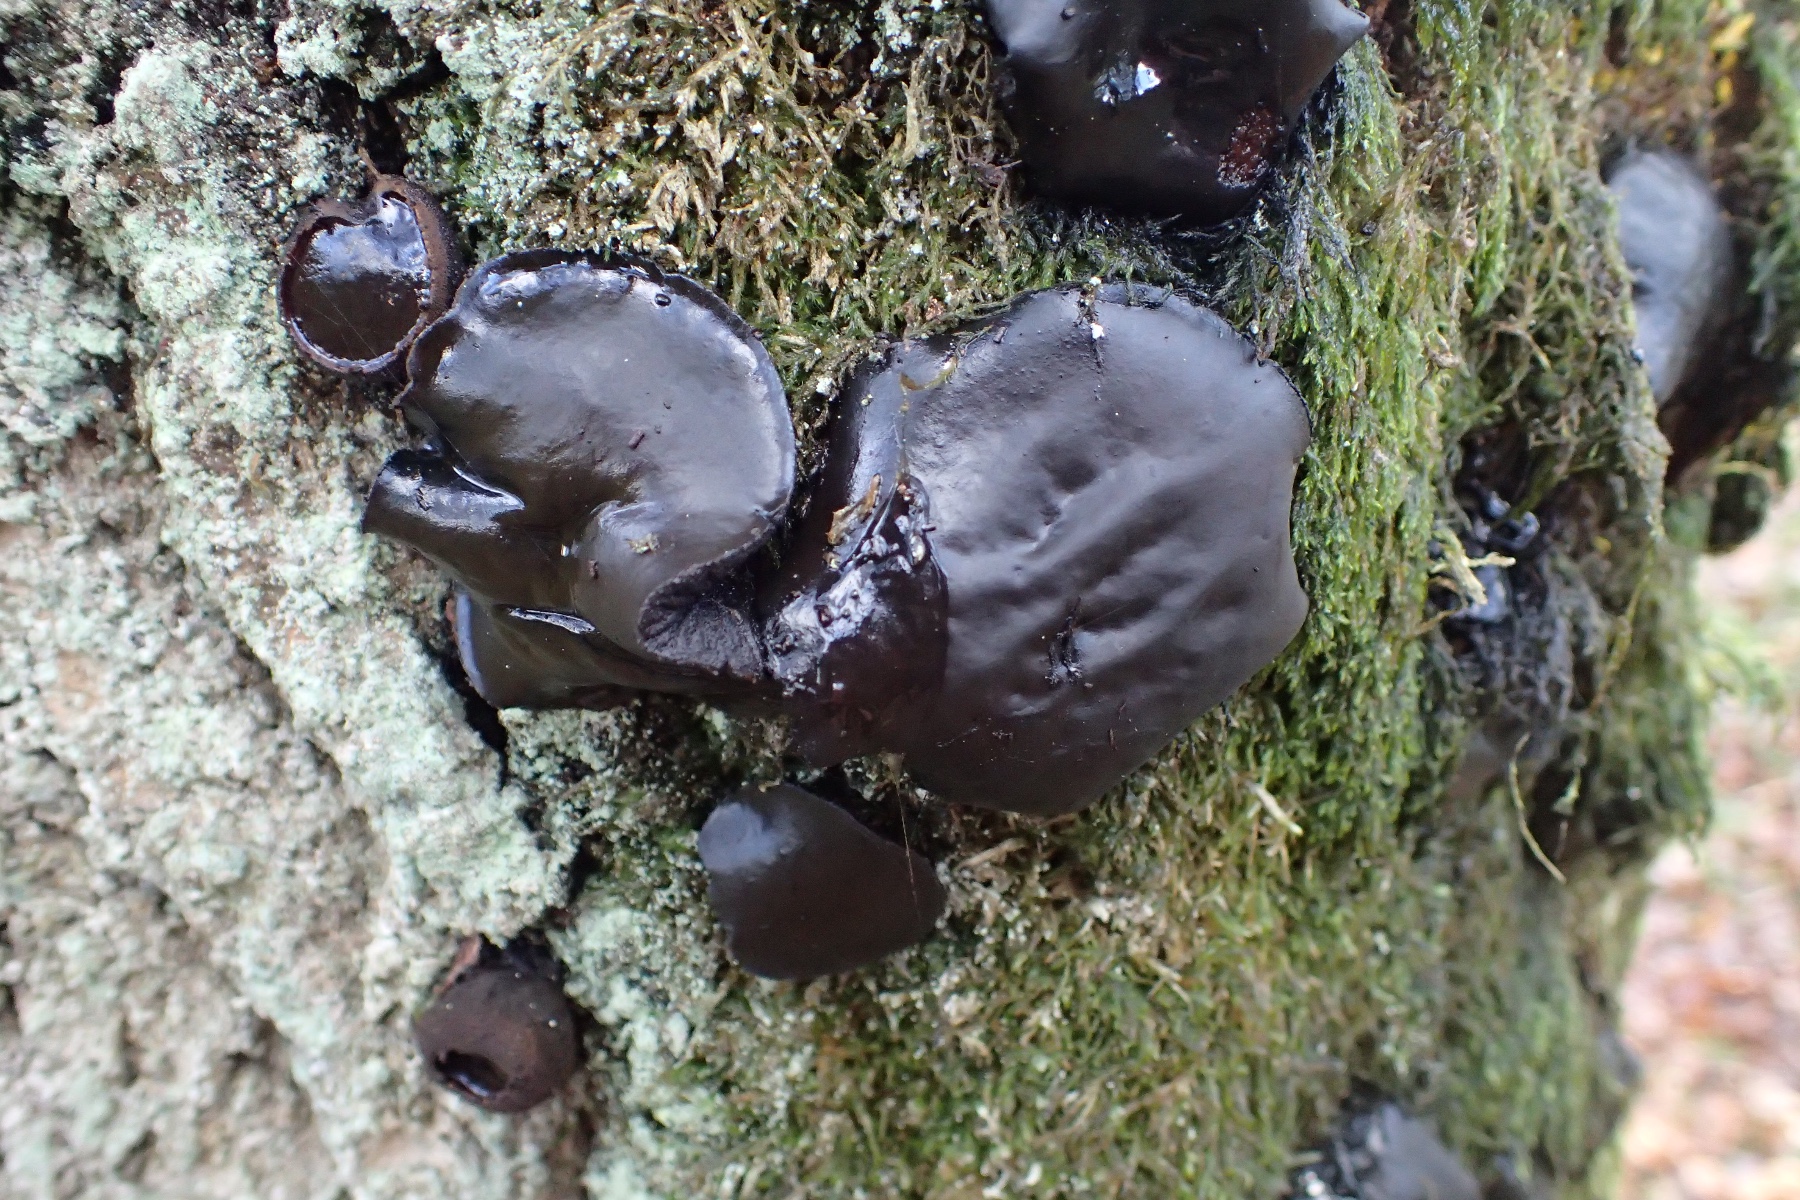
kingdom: Fungi
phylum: Ascomycota
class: Leotiomycetes
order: Phacidiales
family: Phacidiaceae
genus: Bulgaria
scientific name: Bulgaria inquinans
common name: afsmittende topsvamp
